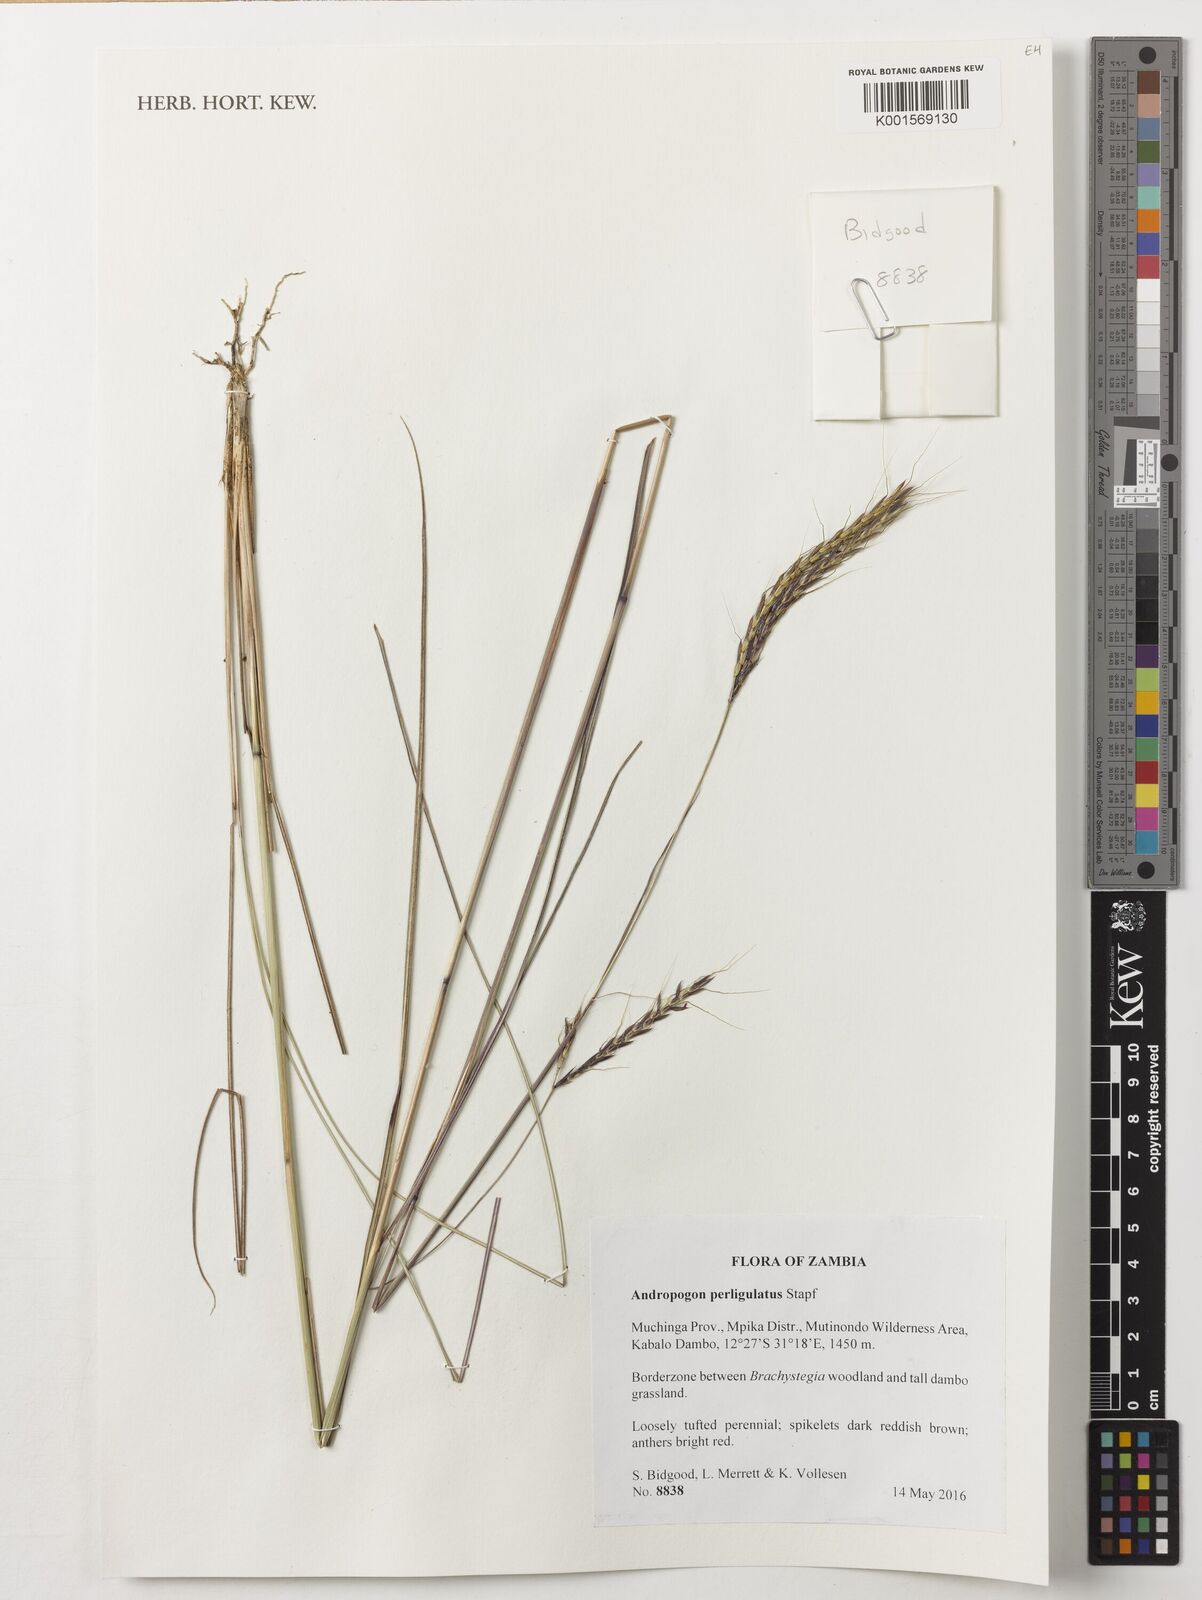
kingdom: Plantae
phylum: Tracheophyta
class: Liliopsida
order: Poales
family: Poaceae
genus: Andropogon
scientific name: Andropogon perligulatus
